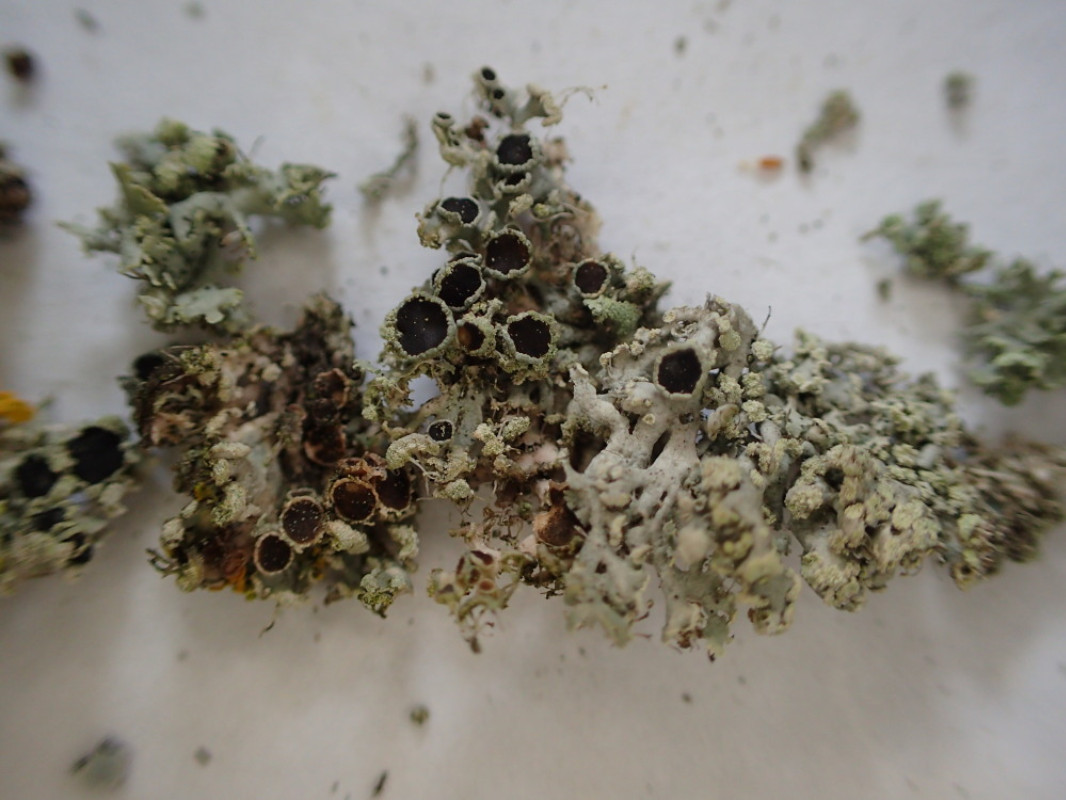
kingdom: Fungi
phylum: Ascomycota
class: Lecanoromycetes
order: Caliciales
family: Physciaceae
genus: Physcia
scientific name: Physcia tenella
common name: spæd rosetlav
